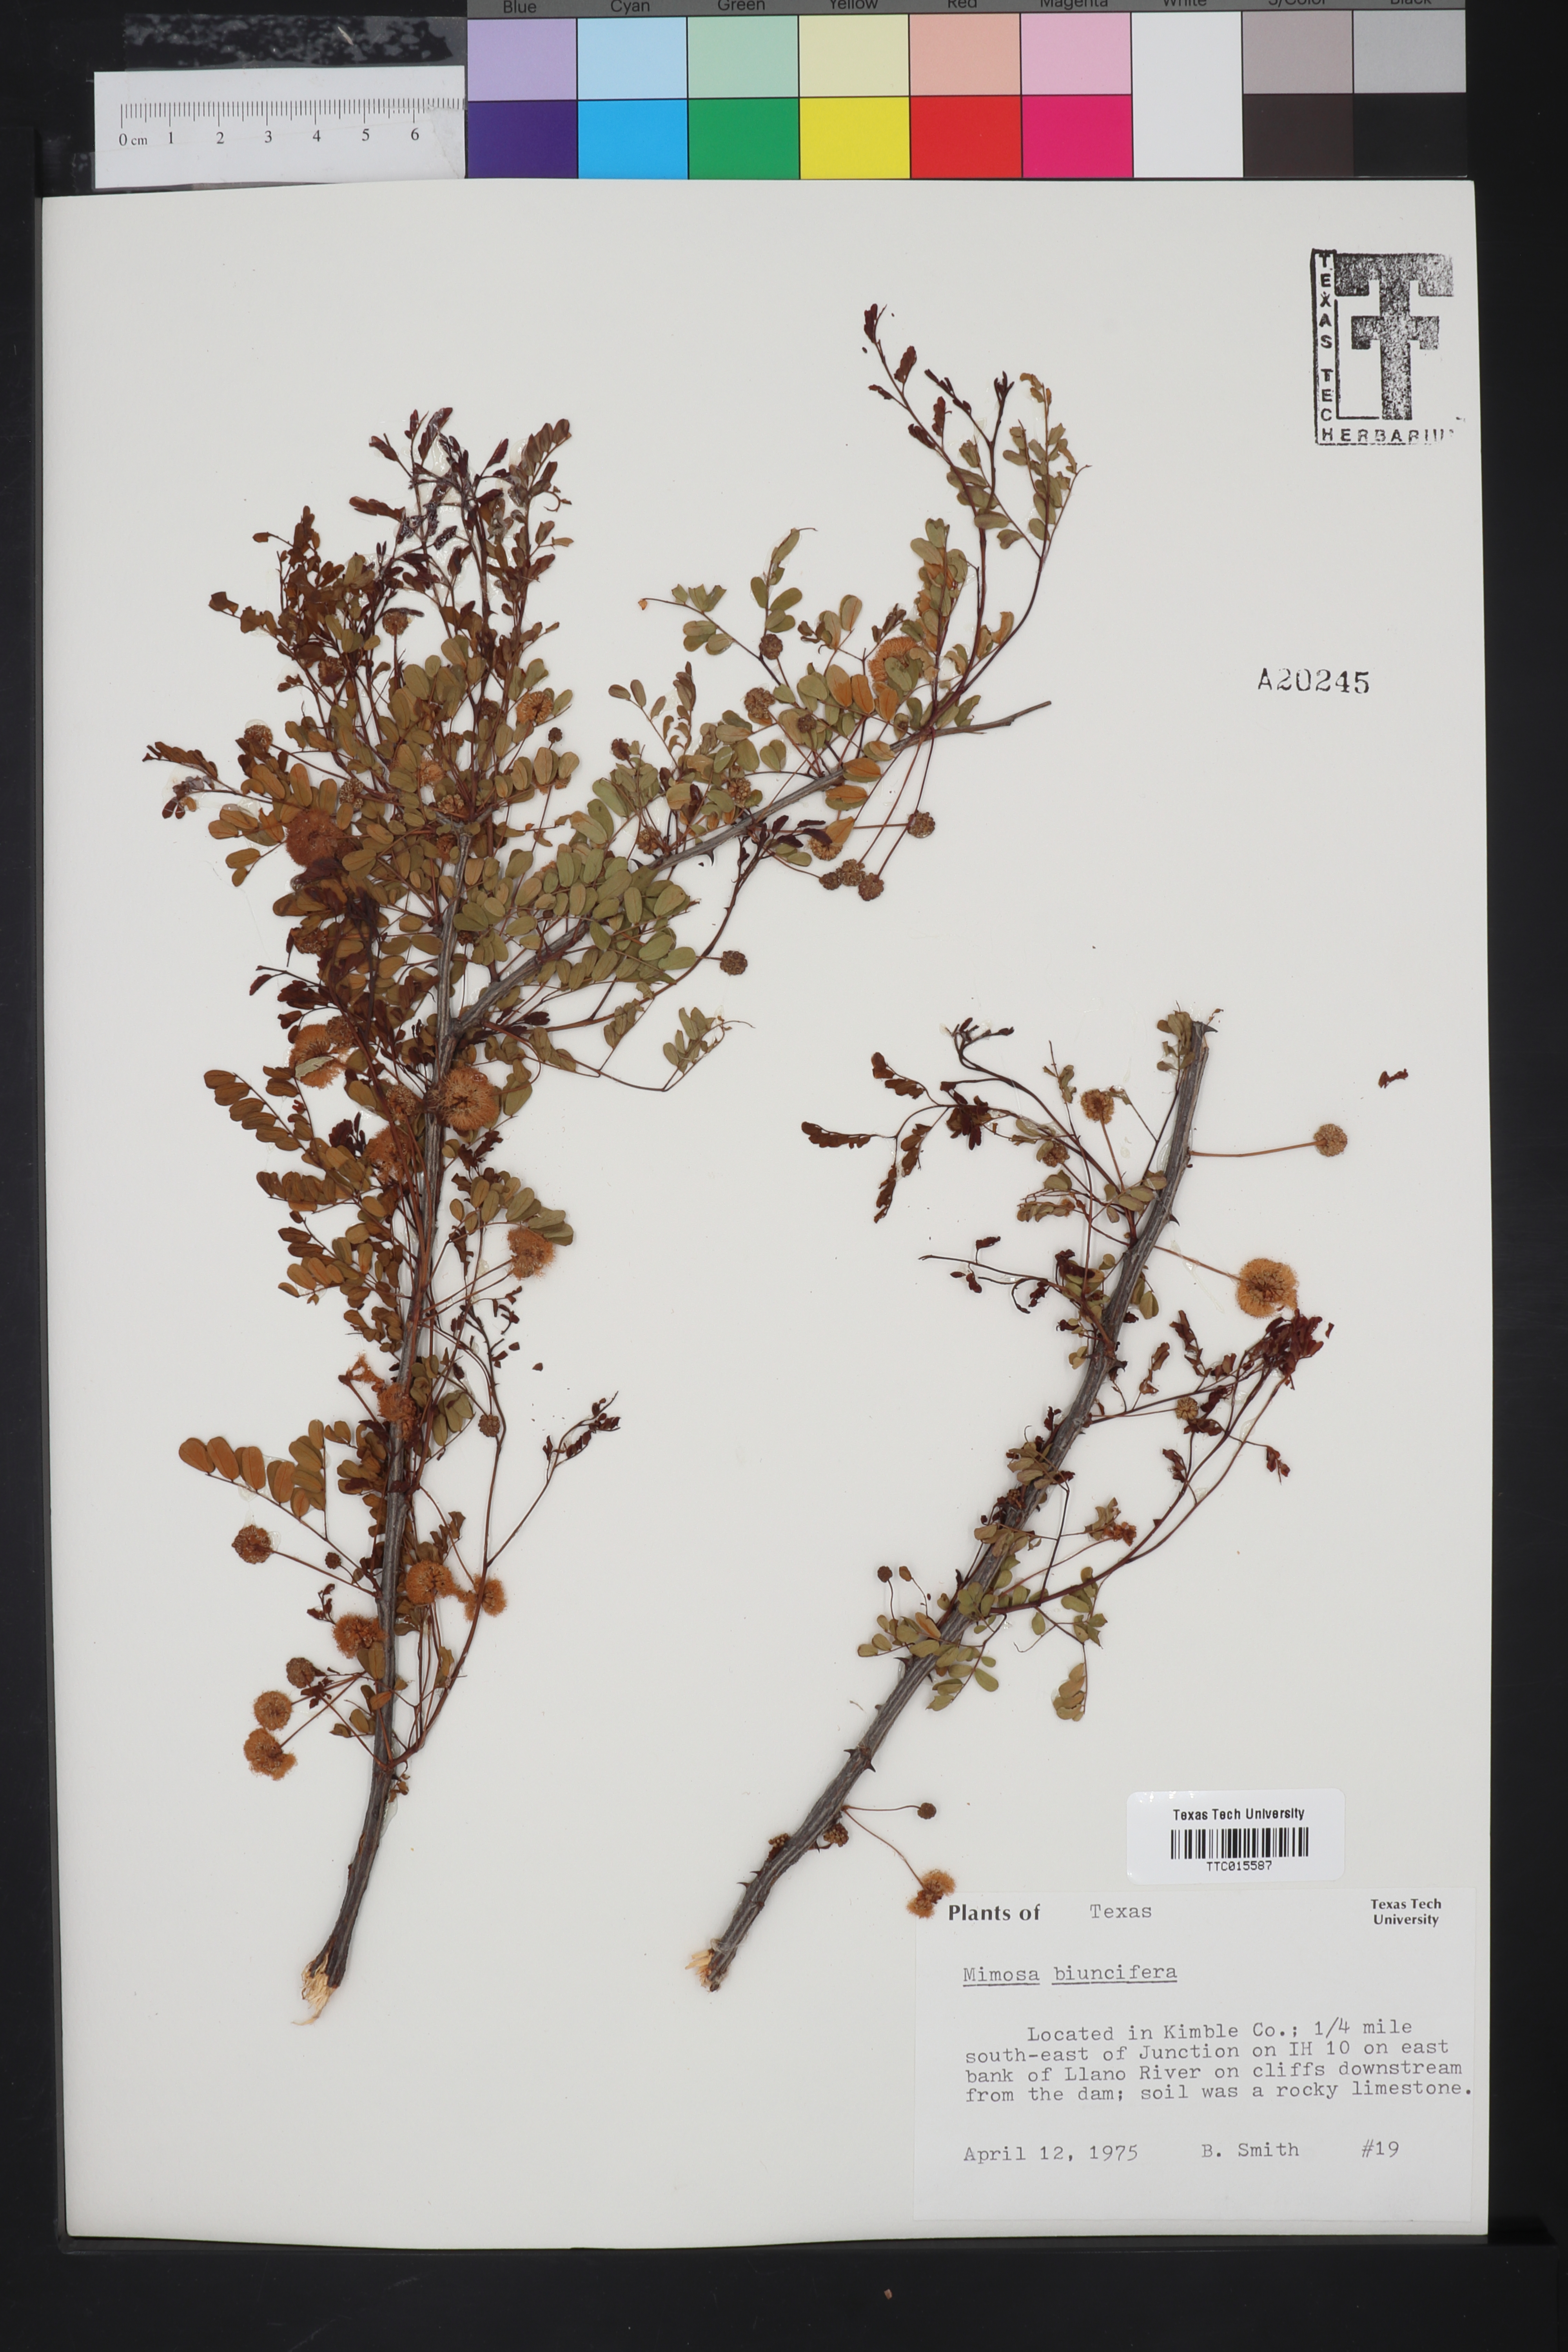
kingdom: Plantae
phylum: Tracheophyta
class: Magnoliopsida
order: Fabales
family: Fabaceae
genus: Mimosa
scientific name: Mimosa biuncifera
